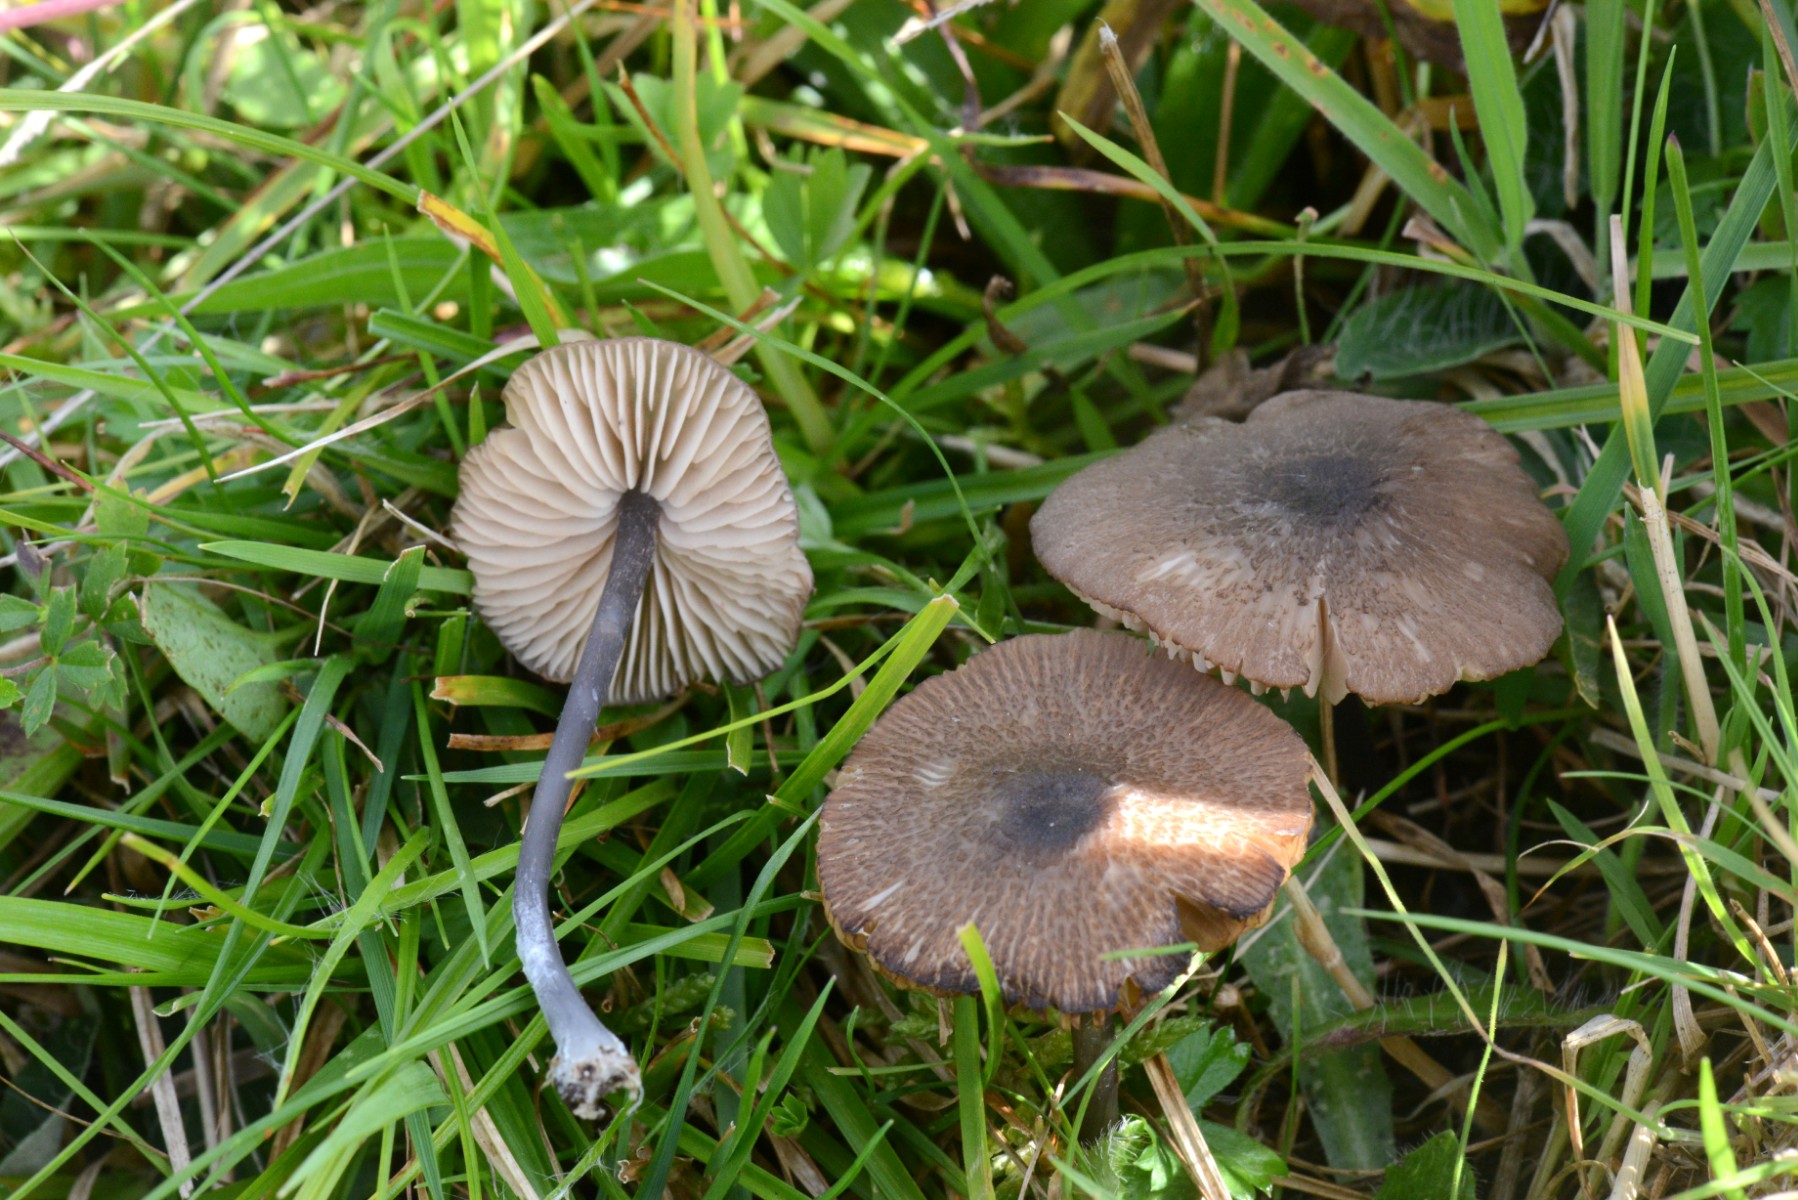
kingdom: Fungi
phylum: Basidiomycota
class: Agaricomycetes
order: Agaricales
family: Entolomataceae
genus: Entoloma
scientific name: Entoloma
